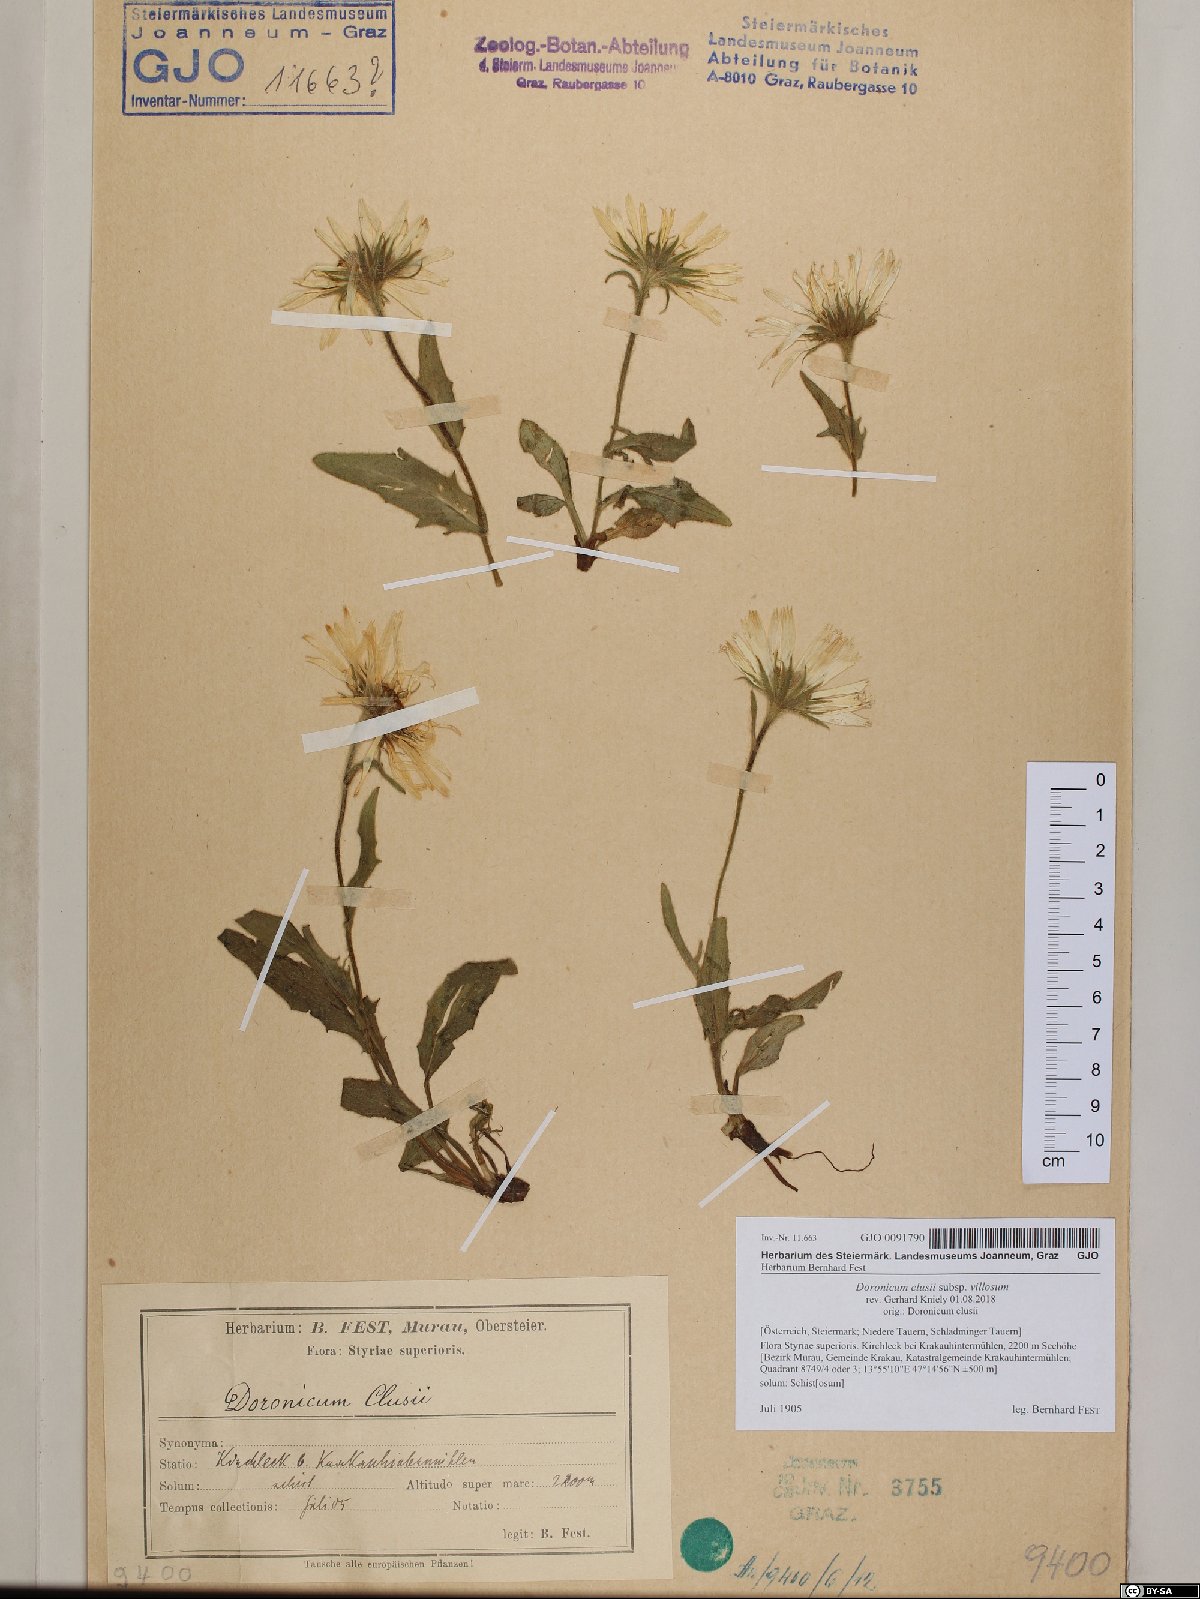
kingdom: Plantae
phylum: Tracheophyta
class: Magnoliopsida
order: Asterales
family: Asteraceae
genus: Doronicum
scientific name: Doronicum clusii
